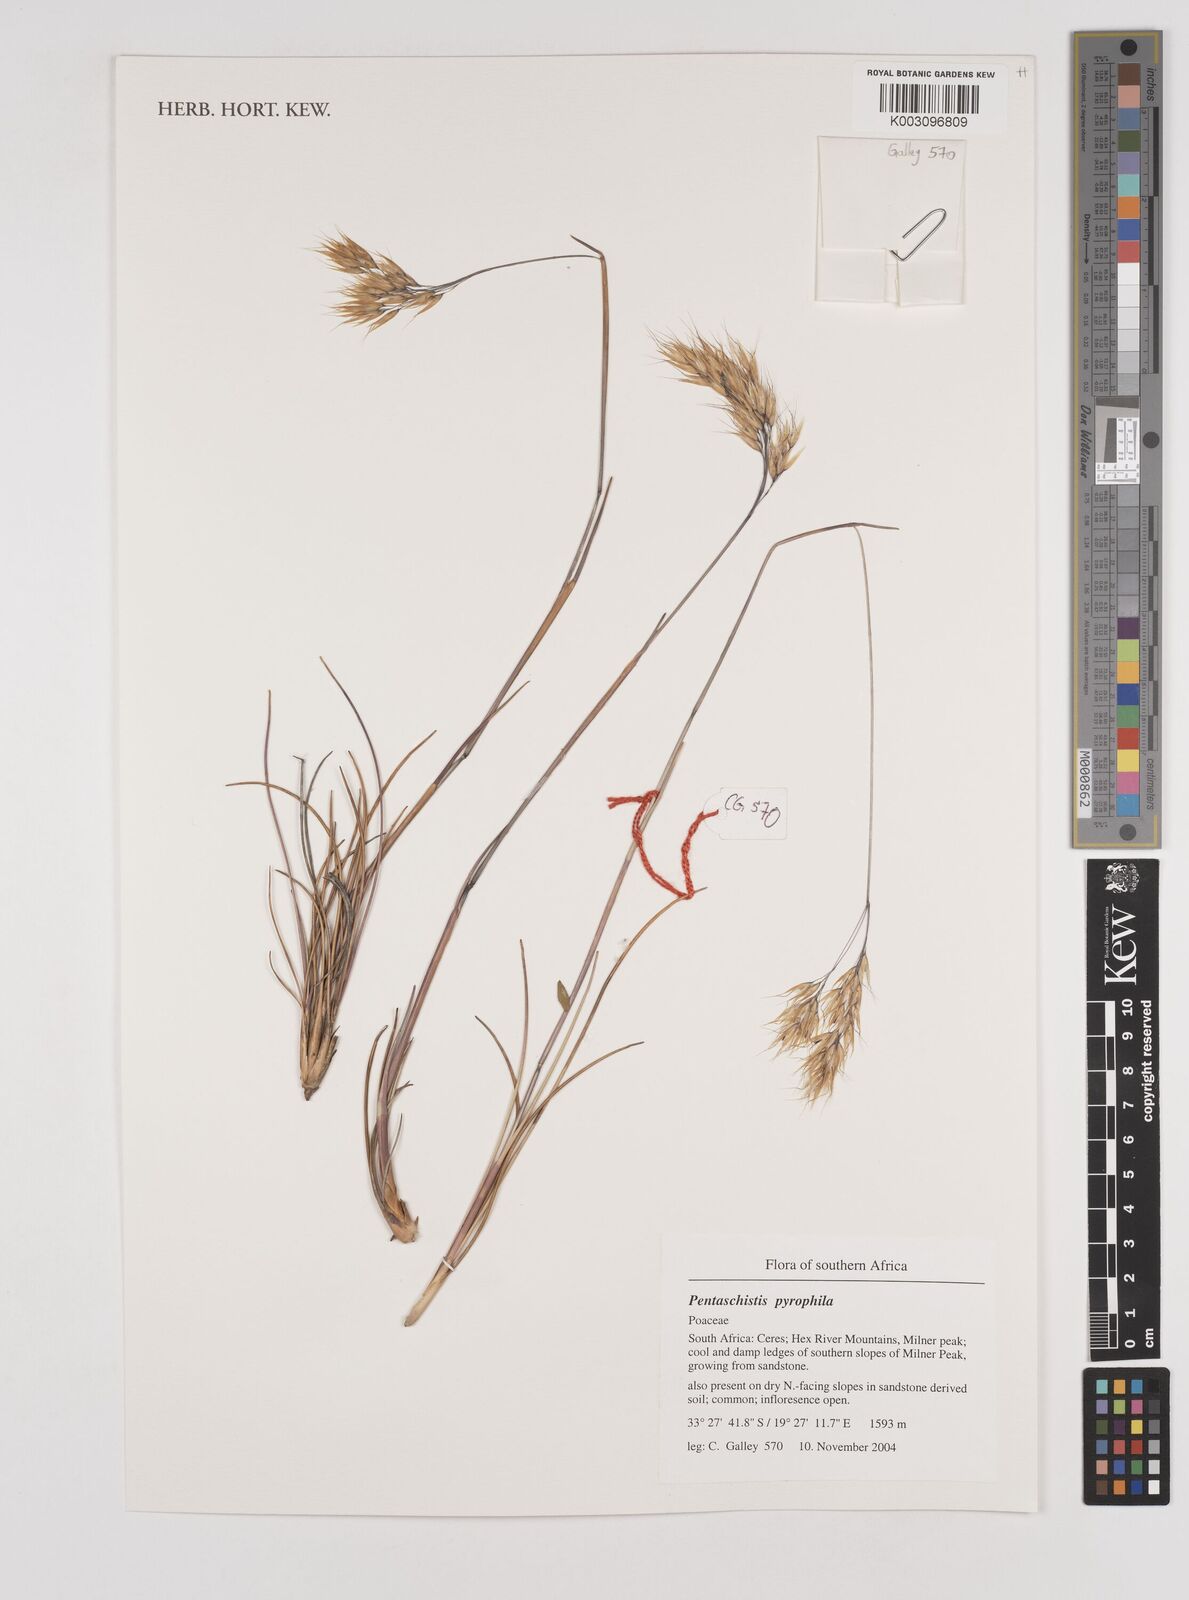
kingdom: Plantae
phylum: Tracheophyta
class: Liliopsida
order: Poales
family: Poaceae
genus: Pentameris
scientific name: Pentameris pyrophila
